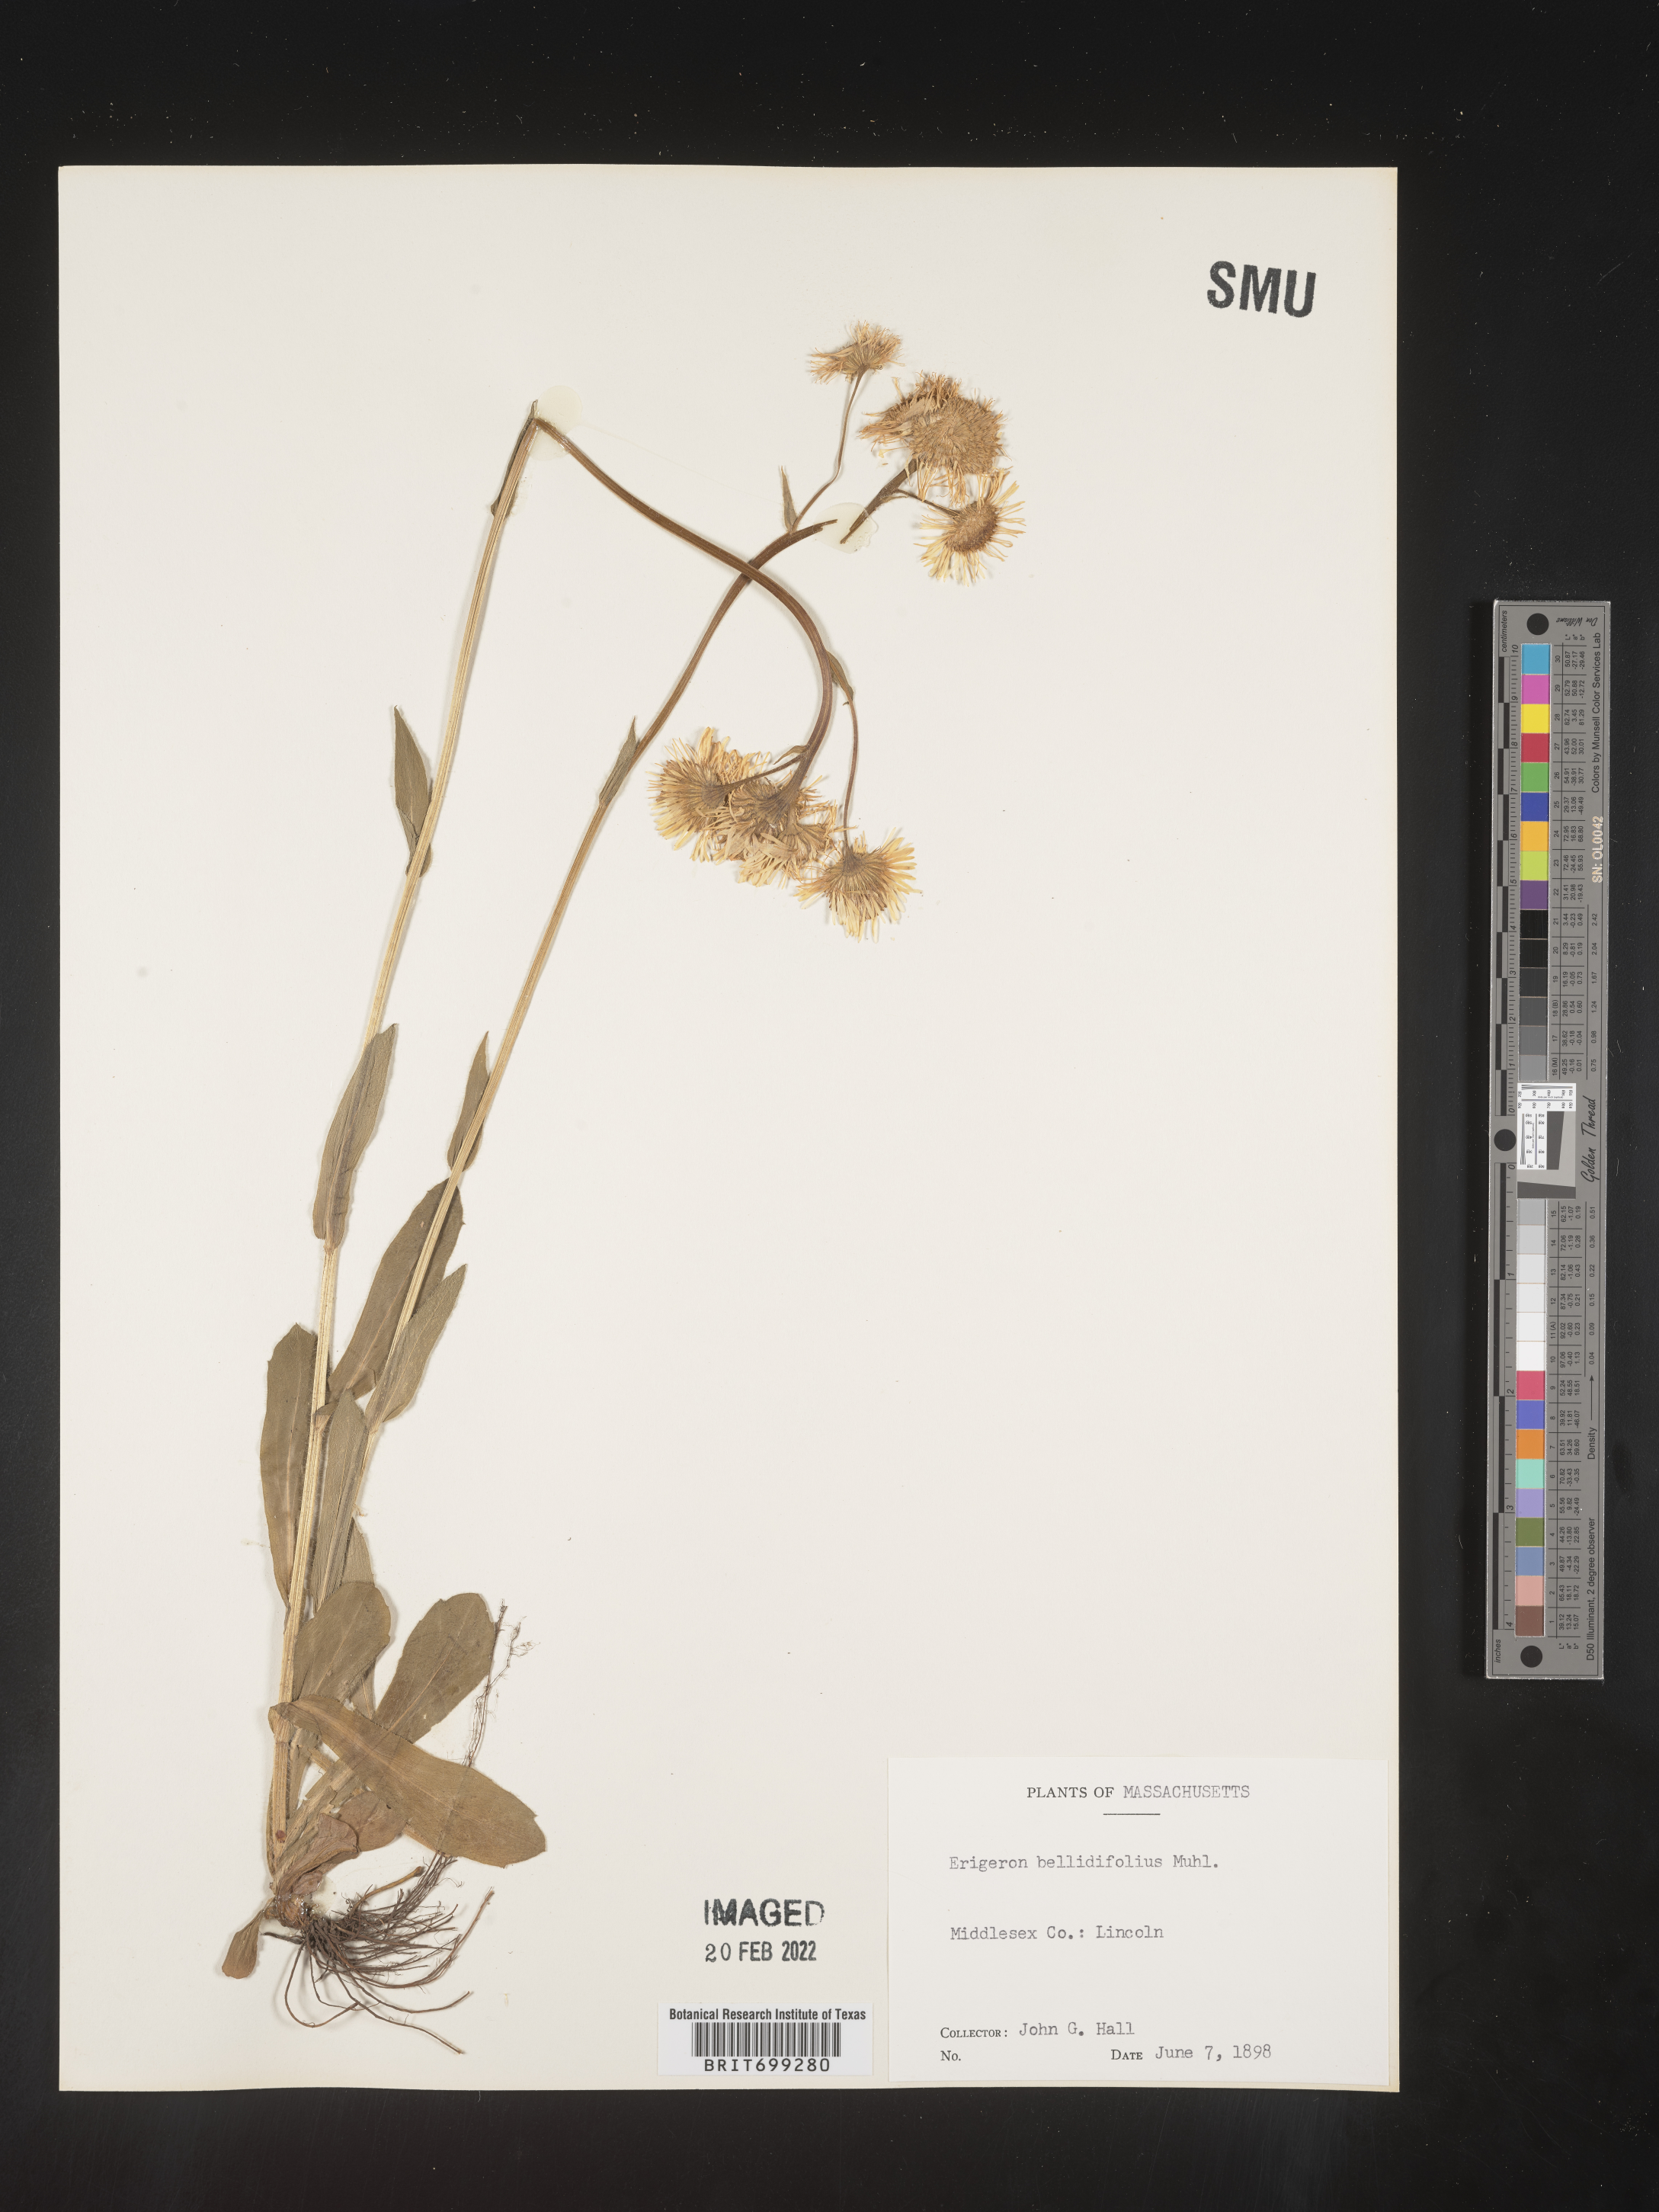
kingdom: Plantae
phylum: Tracheophyta
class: Magnoliopsida
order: Asterales
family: Asteraceae
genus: Erigeron
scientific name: Erigeron pulchellus
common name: Hairy fleabane
